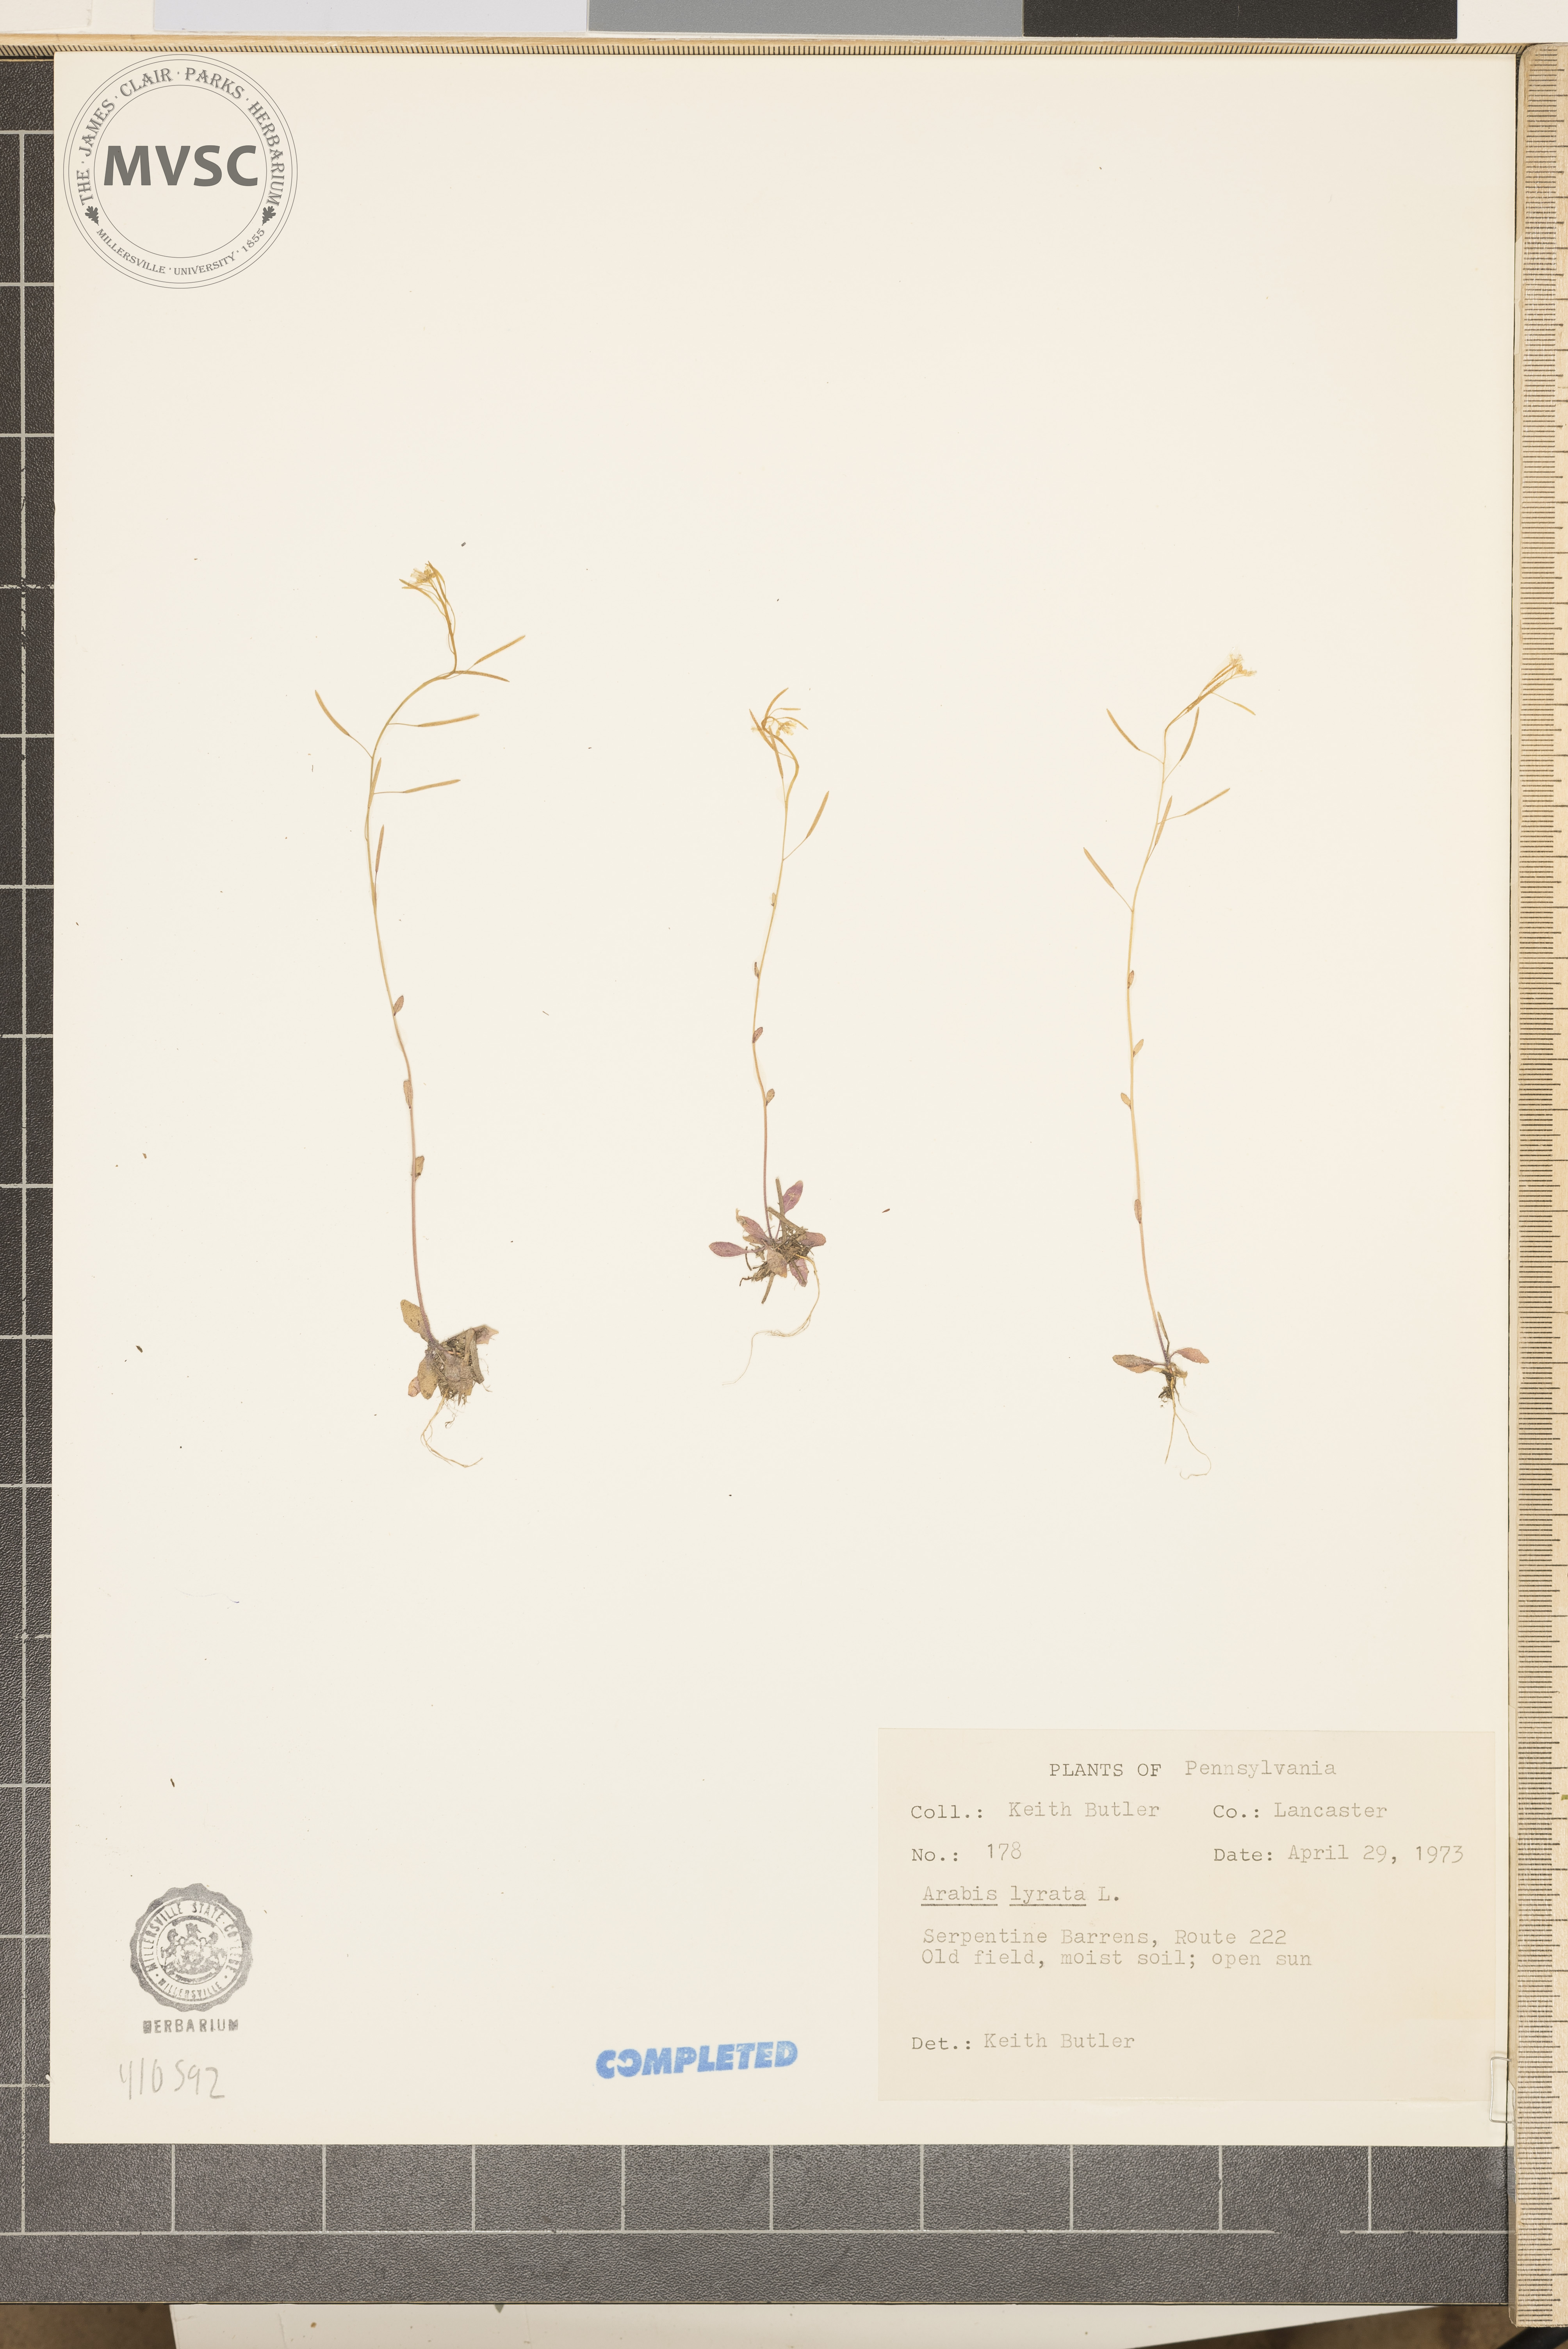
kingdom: Plantae
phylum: Tracheophyta
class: Magnoliopsida
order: Brassicales
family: Brassicaceae
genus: Arabidopsis
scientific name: Arabidopsis lyrata
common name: lyre-leaved rockcress
